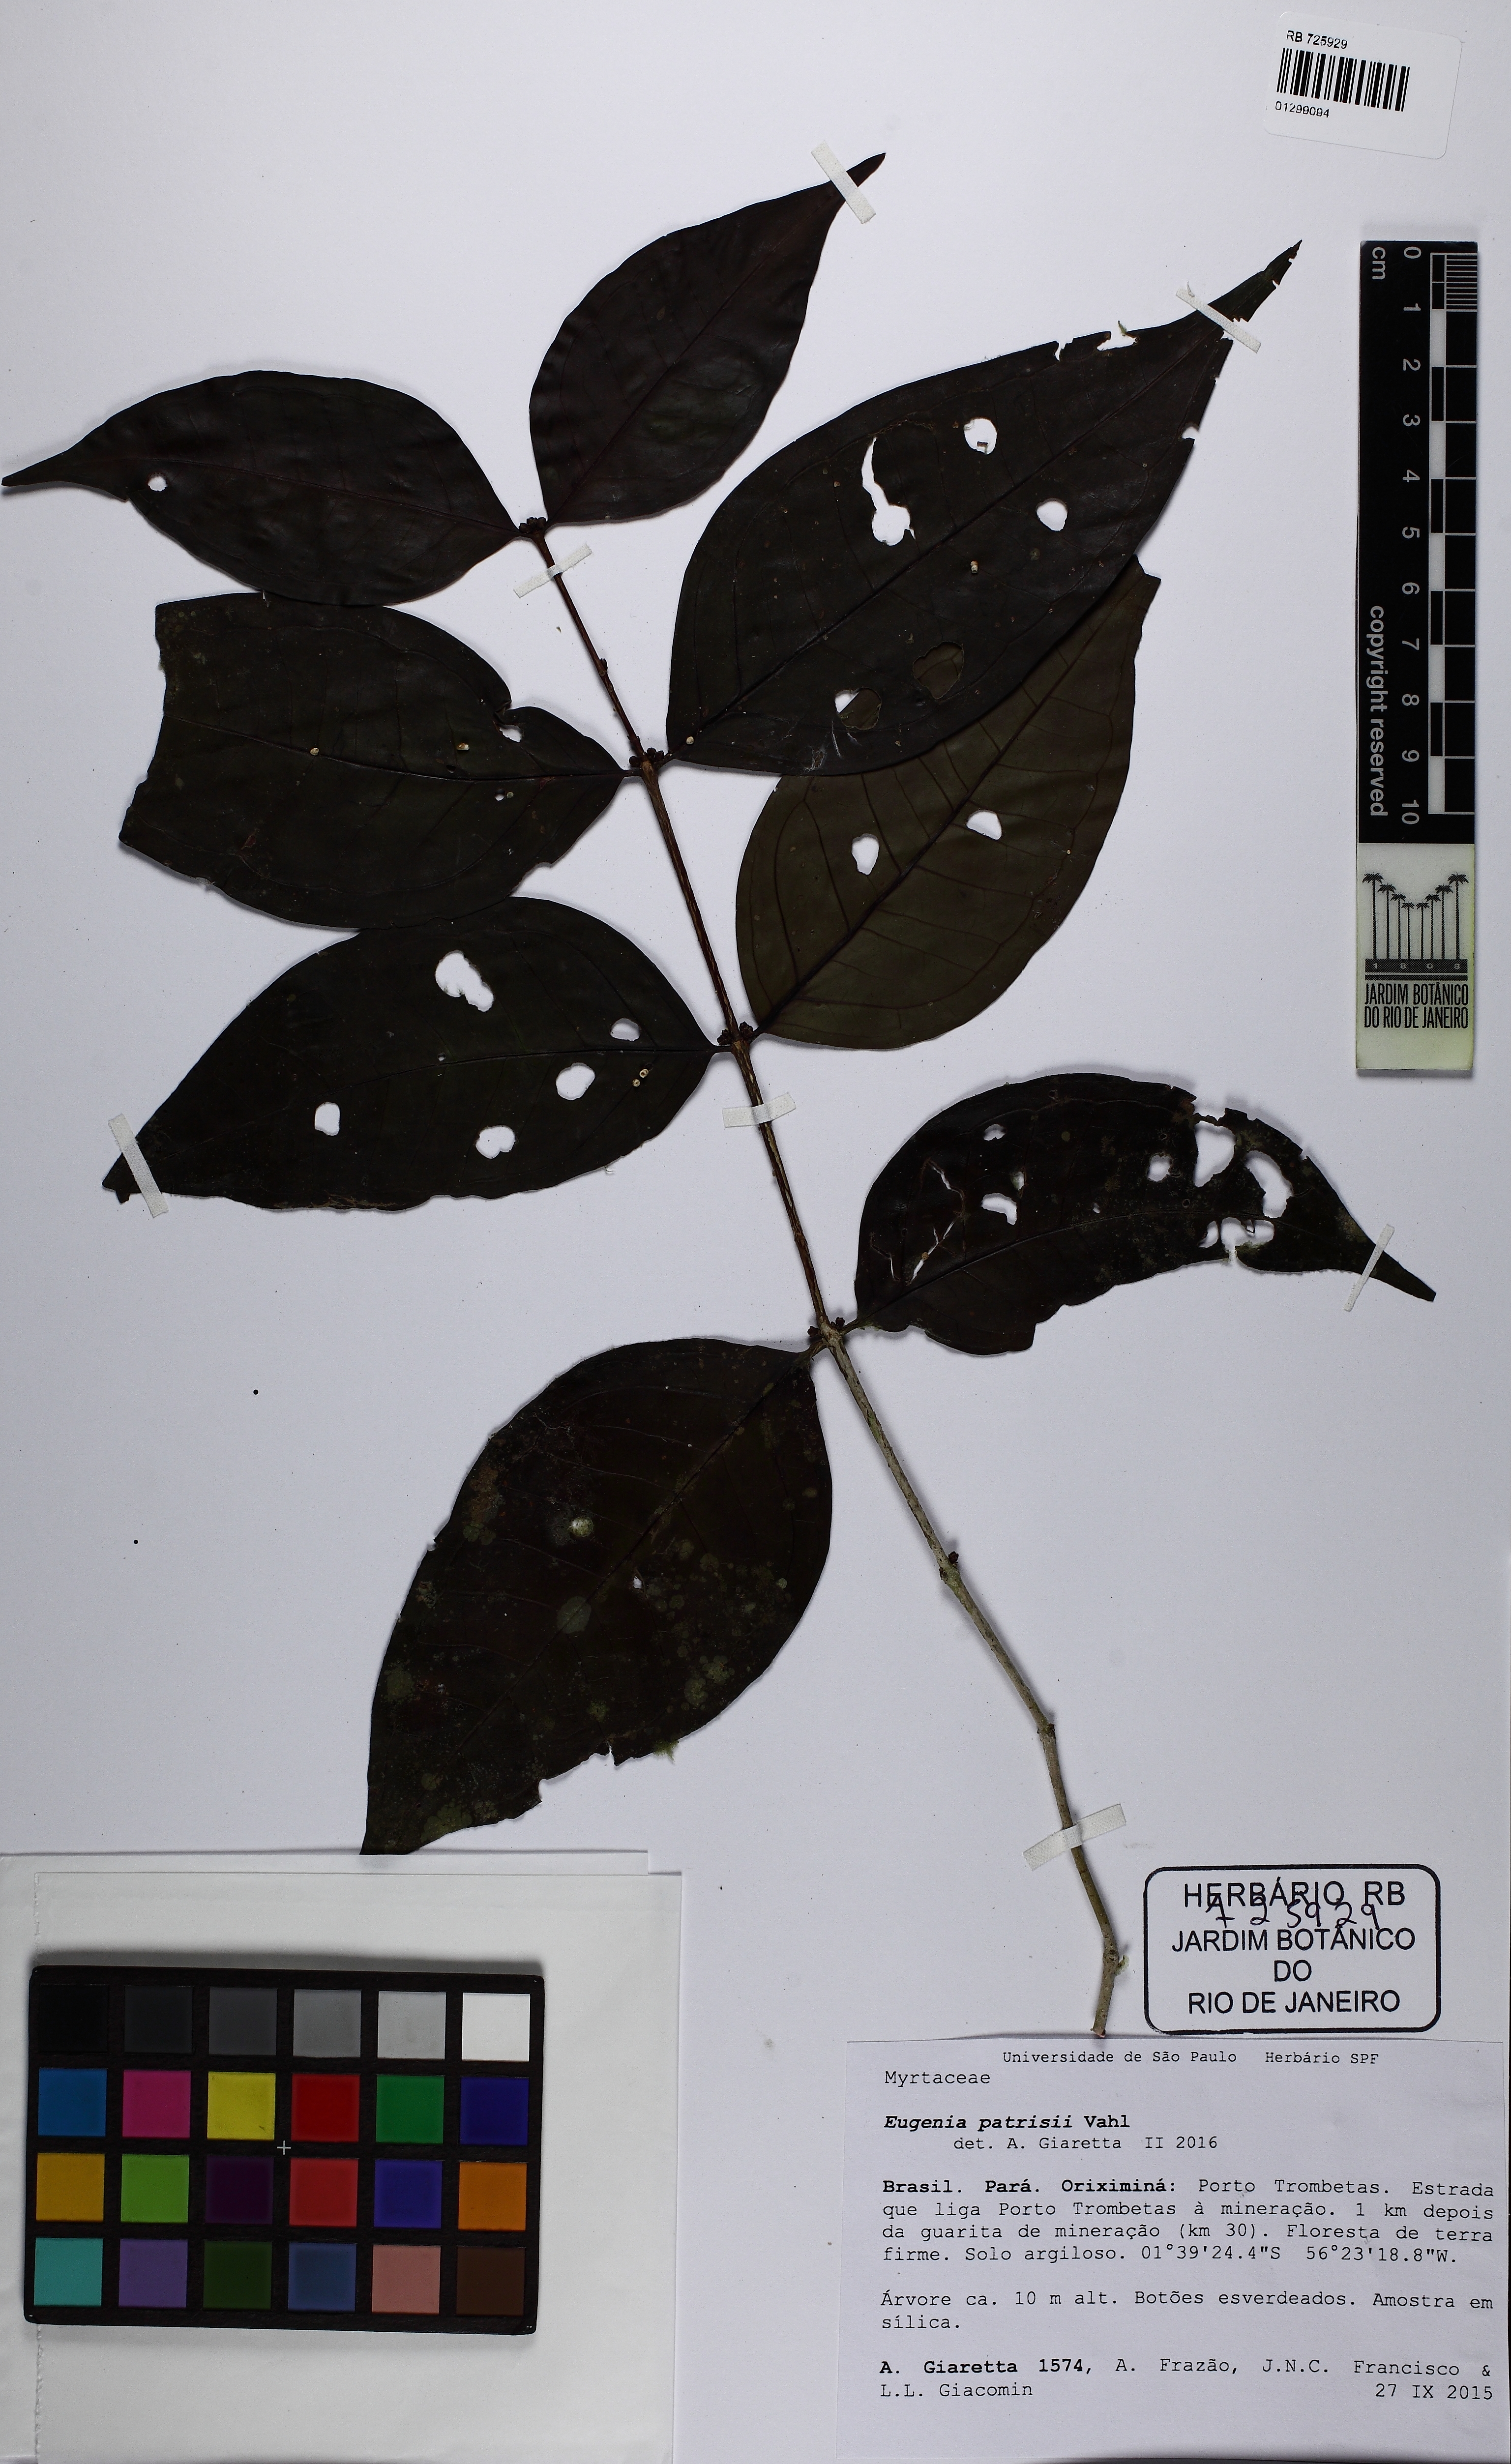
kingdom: Plantae
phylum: Tracheophyta
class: Magnoliopsida
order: Myrtales
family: Myrtaceae
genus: Eugenia
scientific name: Eugenia patrisii
